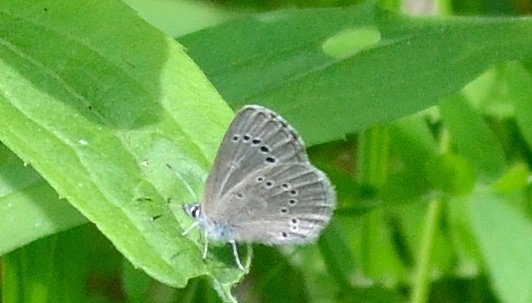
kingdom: Animalia
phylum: Arthropoda
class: Insecta
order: Lepidoptera
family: Lycaenidae
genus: Glaucopsyche
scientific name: Glaucopsyche lygdamus
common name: Silvery Blue
